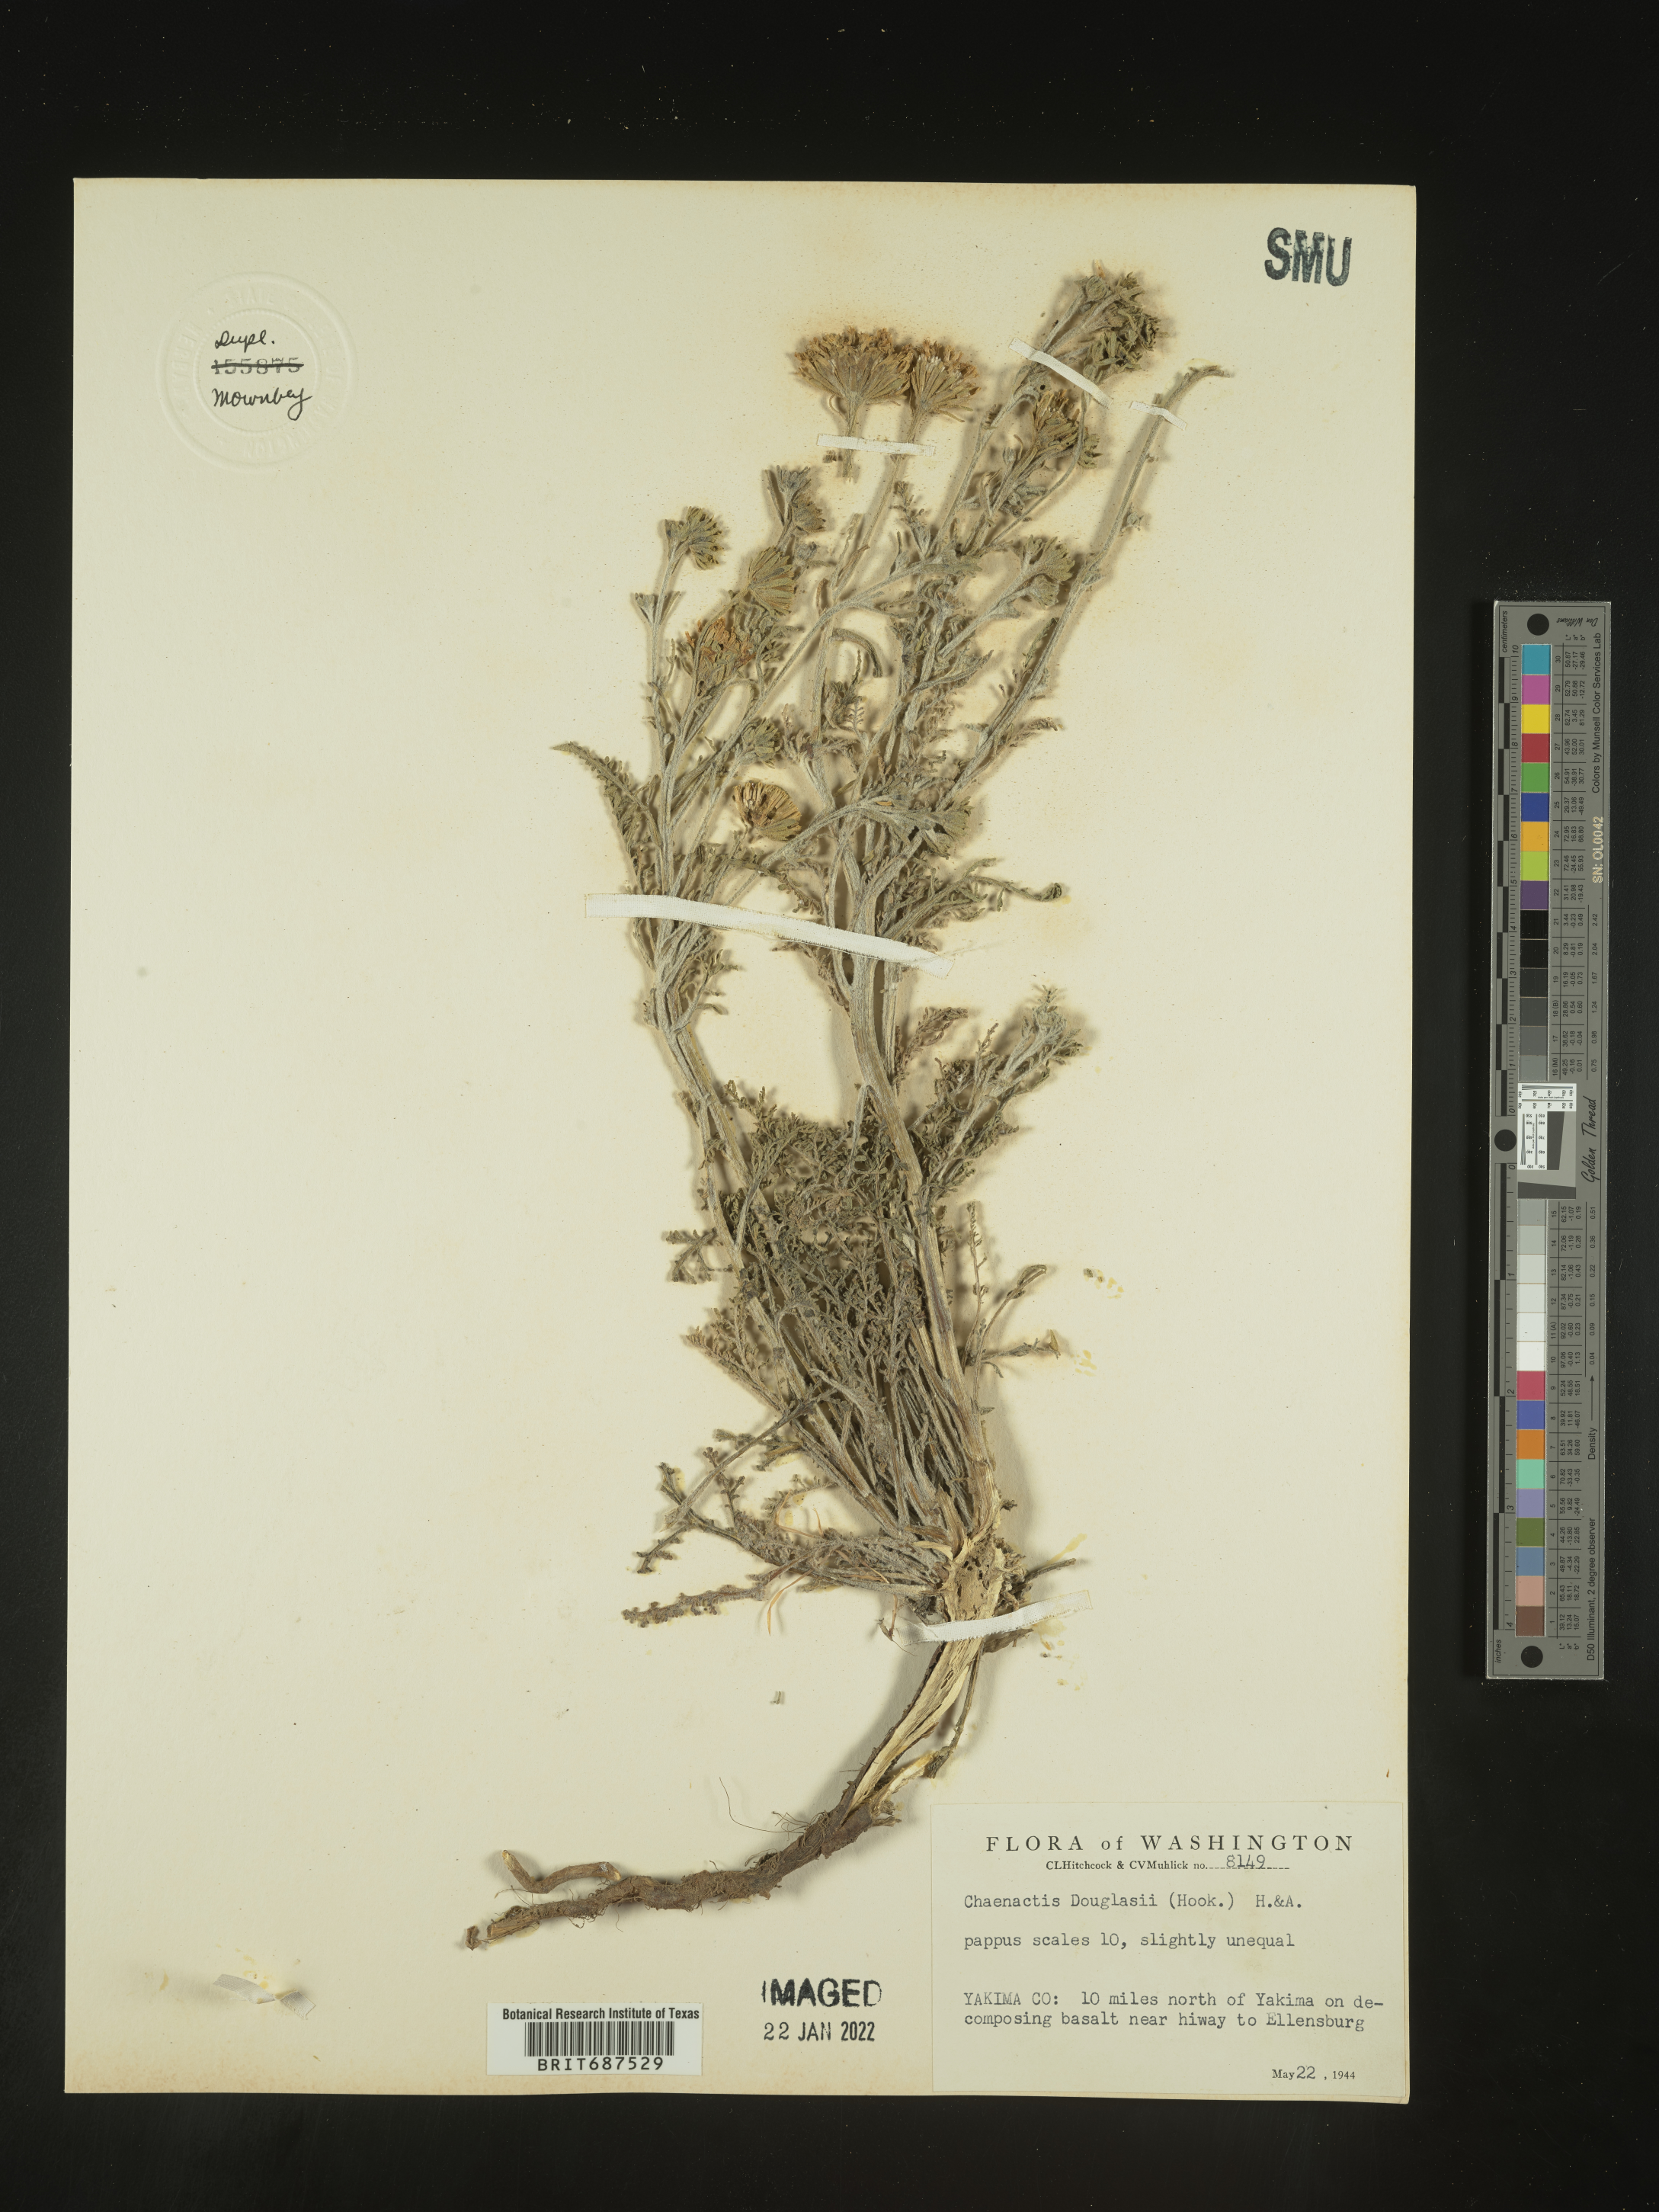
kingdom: Plantae
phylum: Tracheophyta
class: Magnoliopsida
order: Asterales
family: Asteraceae
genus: Chaenactis
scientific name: Chaenactis douglasii
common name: Hoary pincushion
